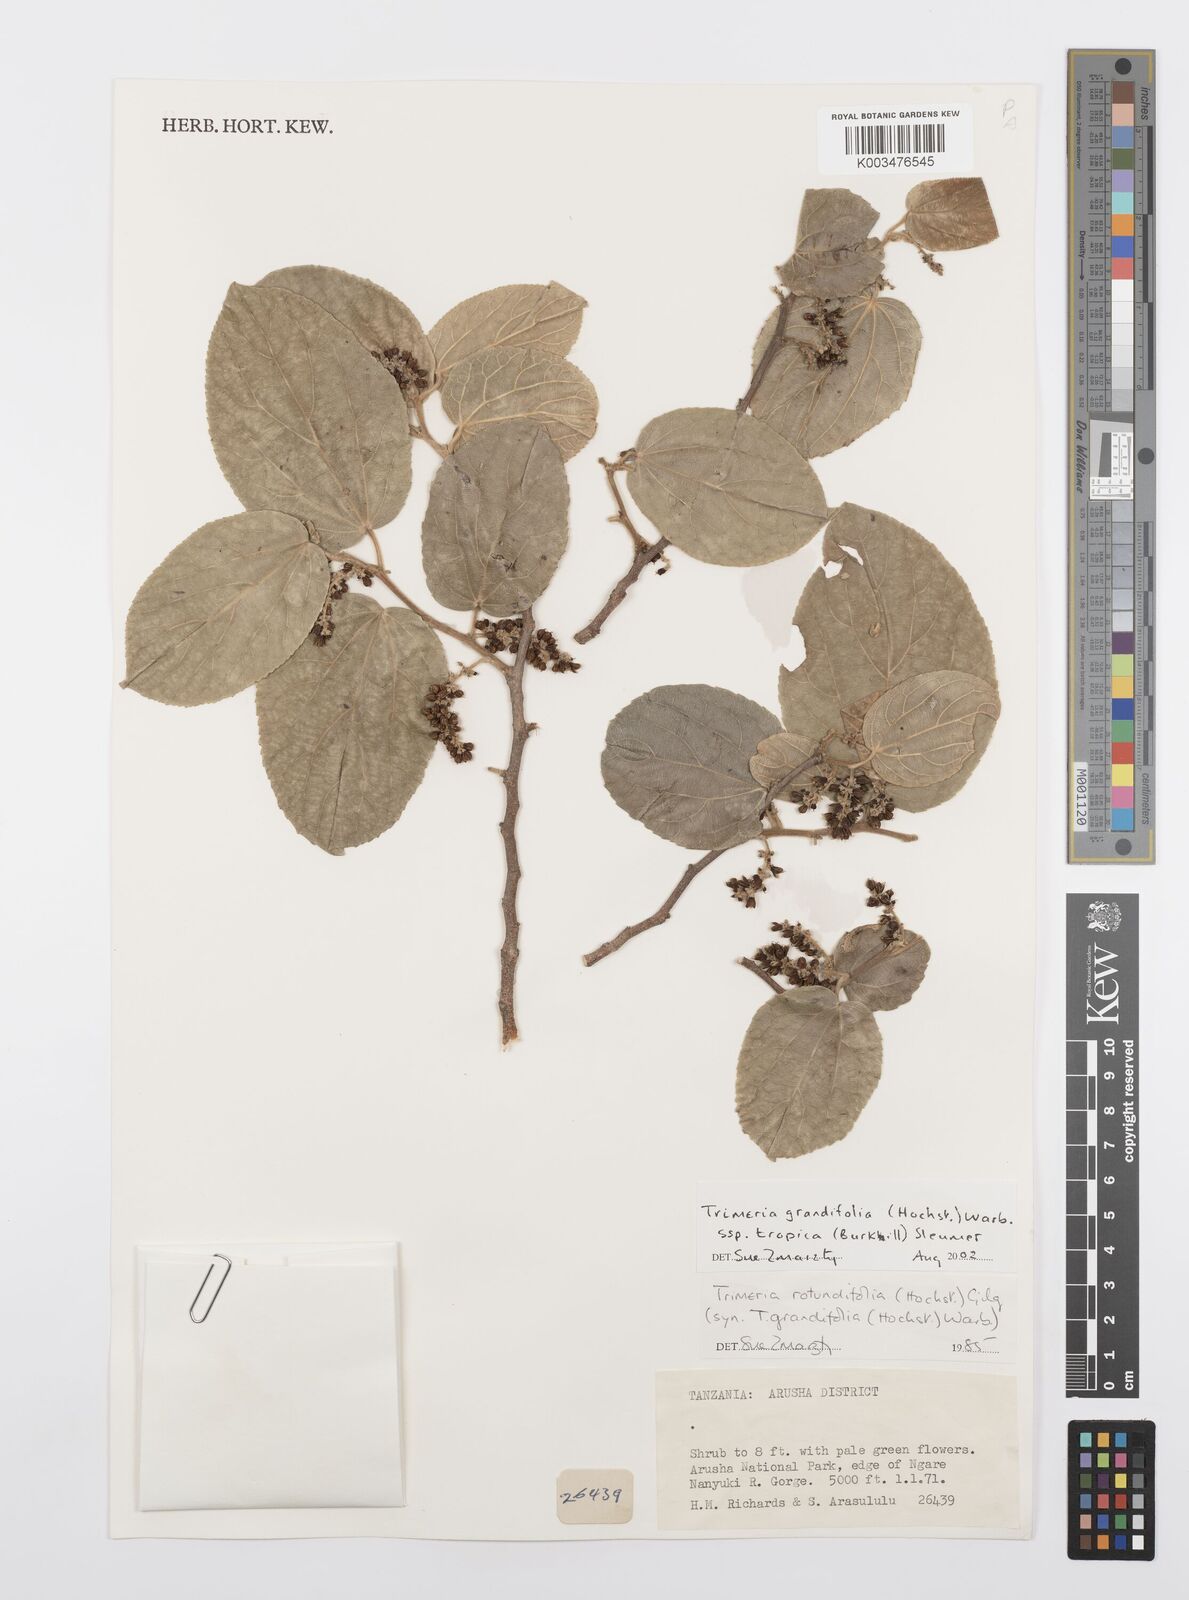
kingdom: Plantae
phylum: Tracheophyta
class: Magnoliopsida
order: Malpighiales
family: Salicaceae
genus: Trimeria
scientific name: Trimeria grandifolia
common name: Wild mulberry
